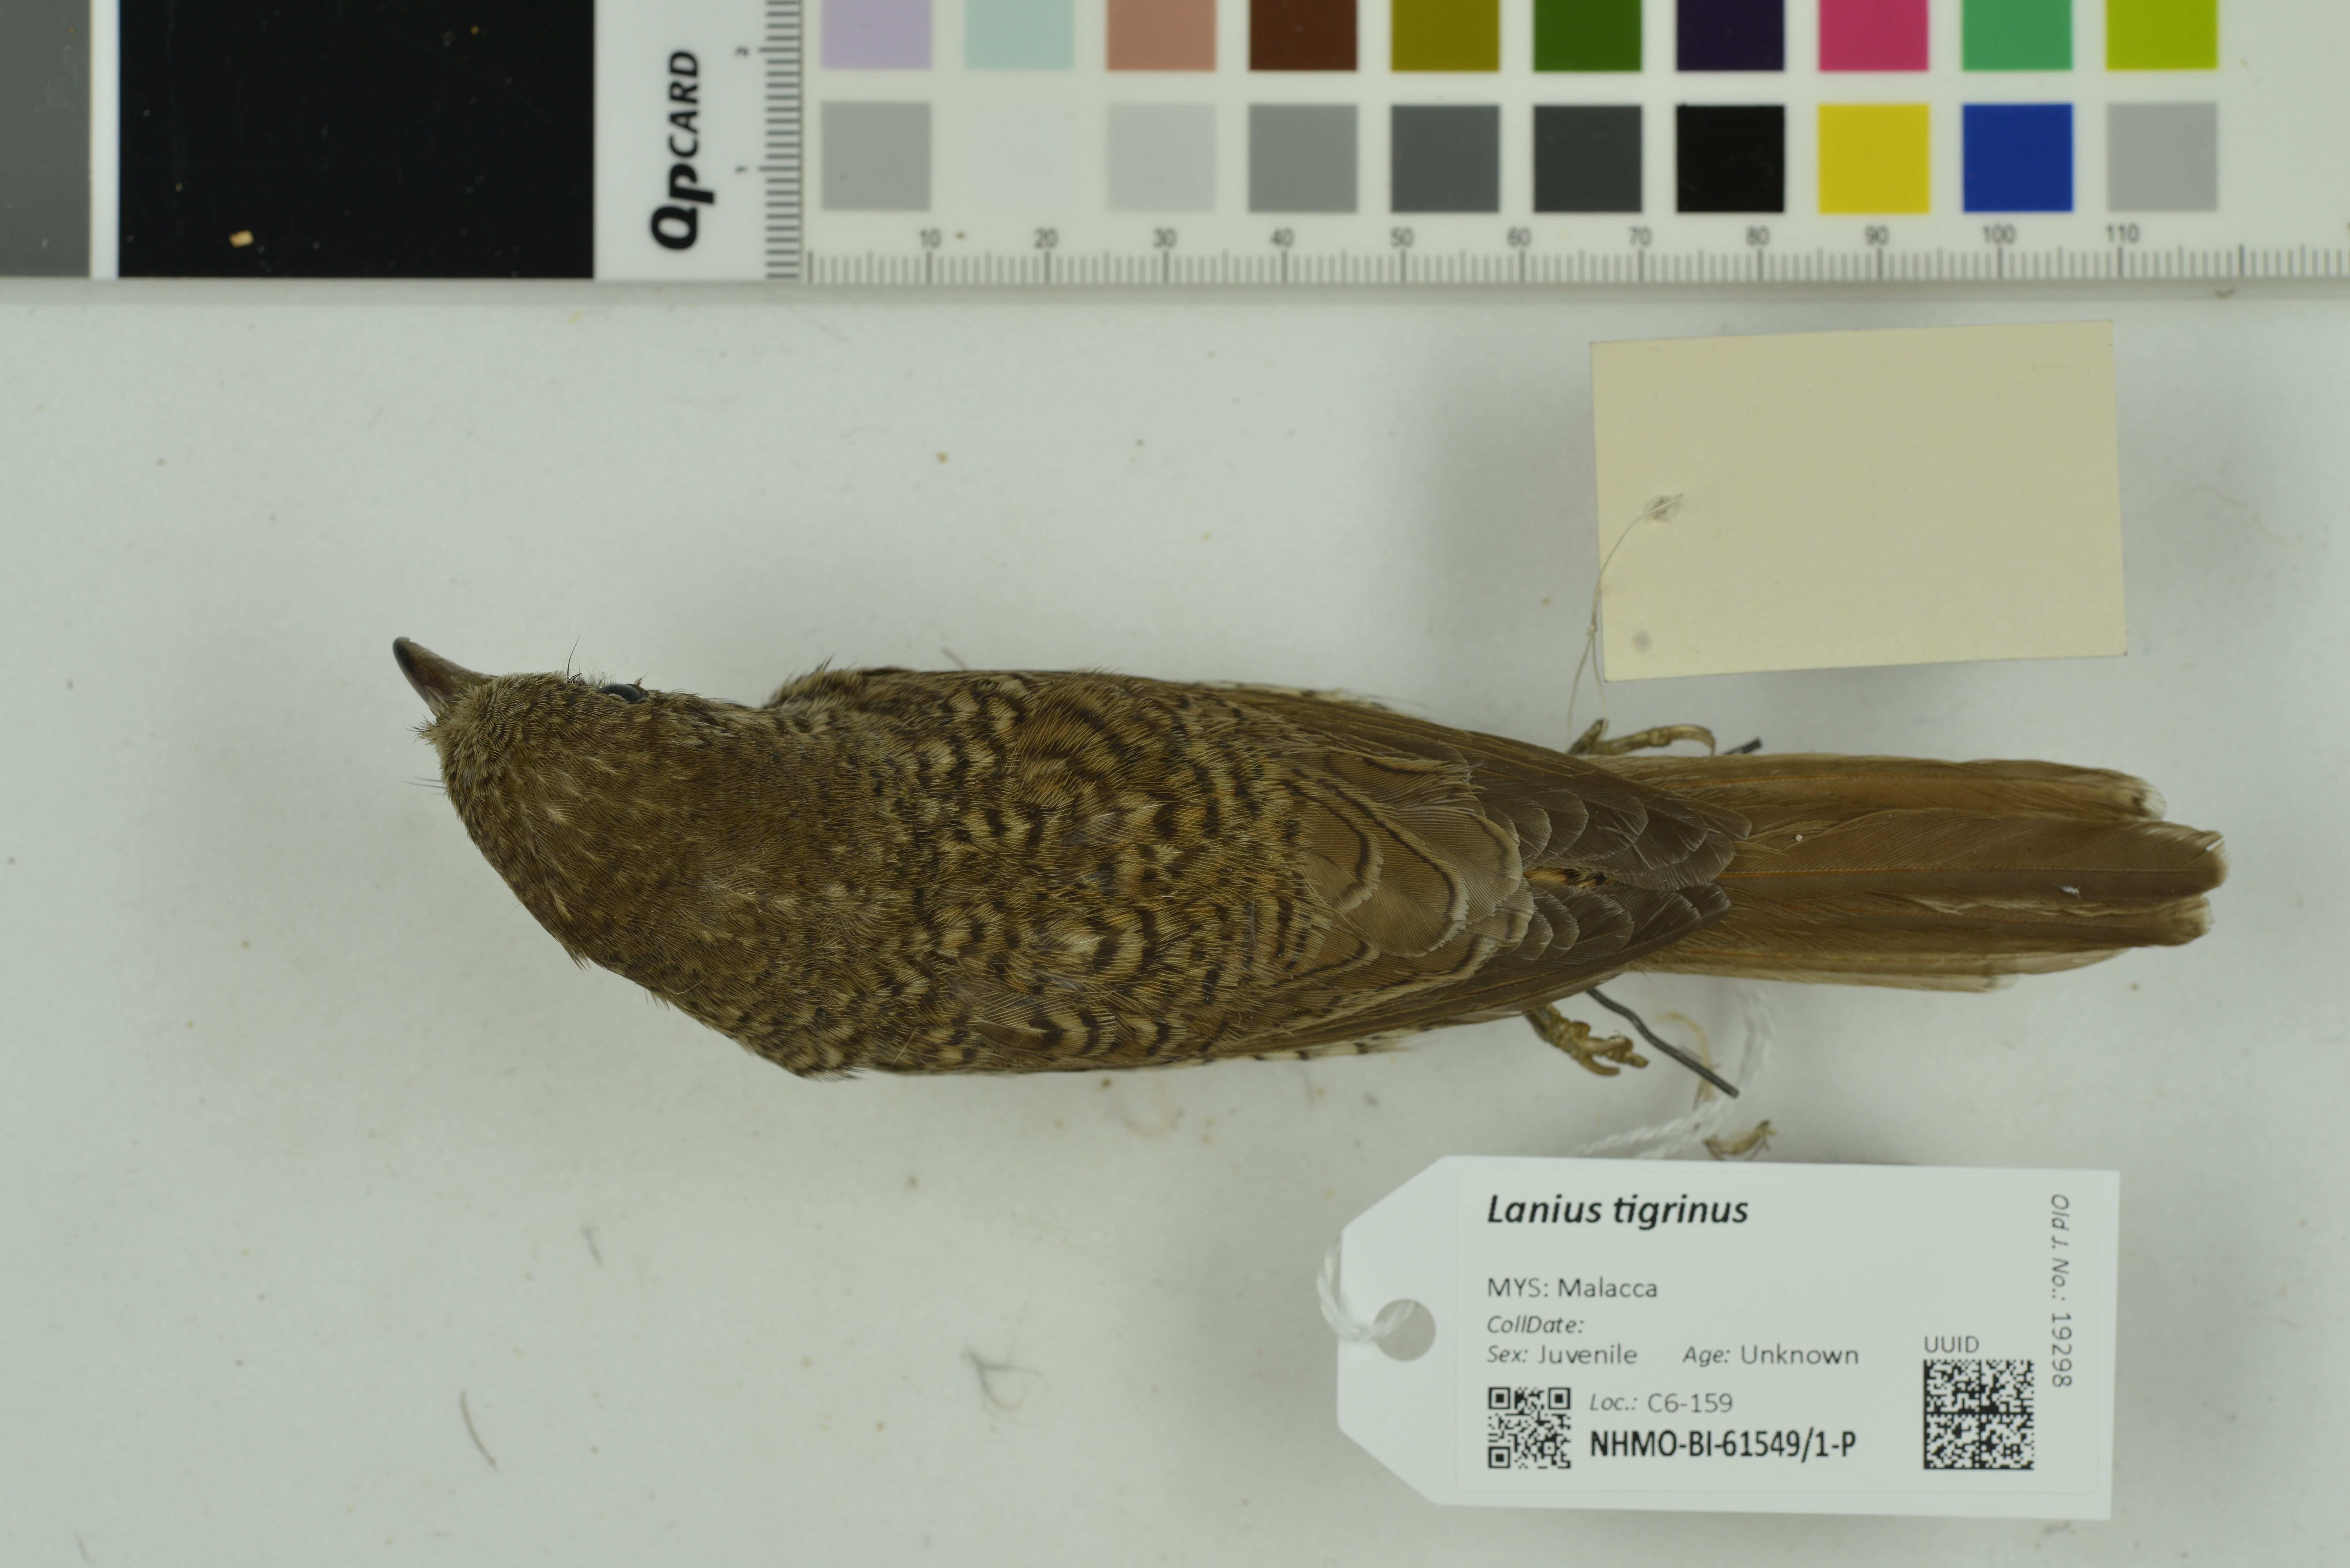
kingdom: Animalia
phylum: Chordata
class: Aves
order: Passeriformes
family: Laniidae
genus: Lanius
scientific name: Lanius tigrinus
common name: Tiger shrike
